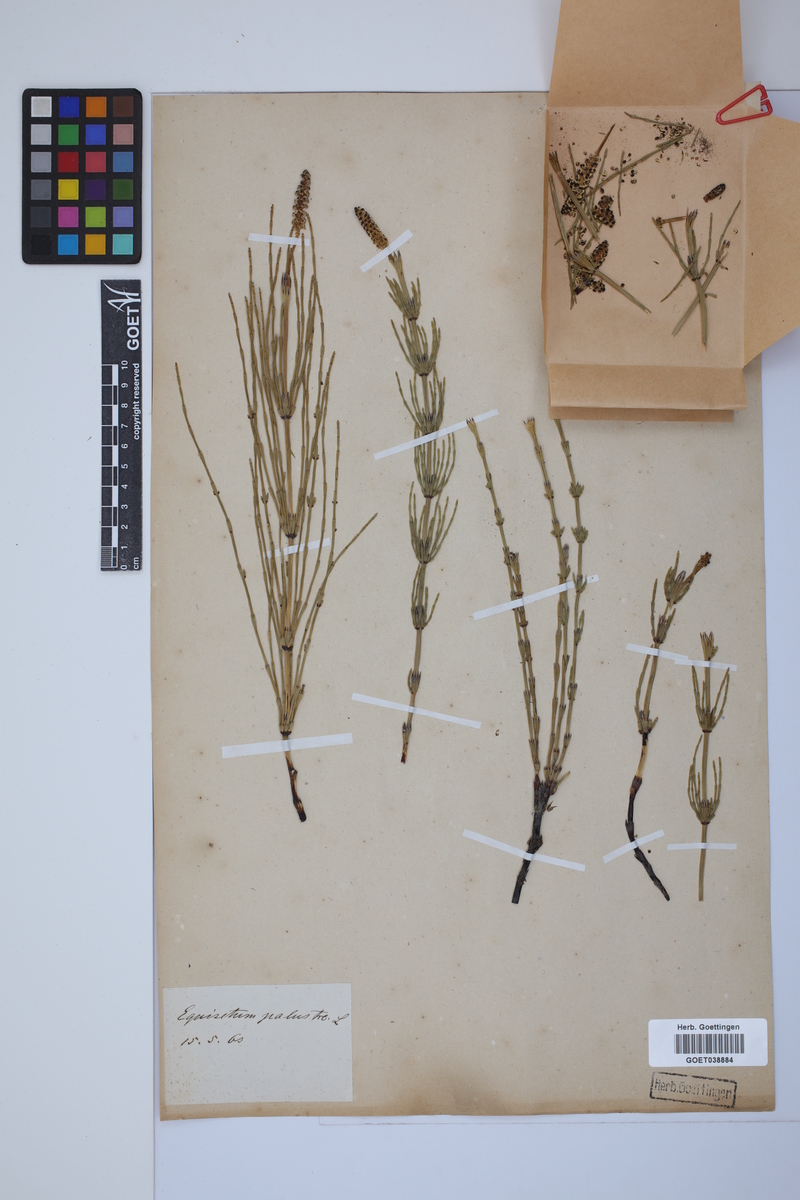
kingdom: Plantae
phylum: Tracheophyta
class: Polypodiopsida
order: Equisetales
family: Equisetaceae
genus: Equisetum
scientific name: Equisetum palustre
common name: Marsh horsetail
